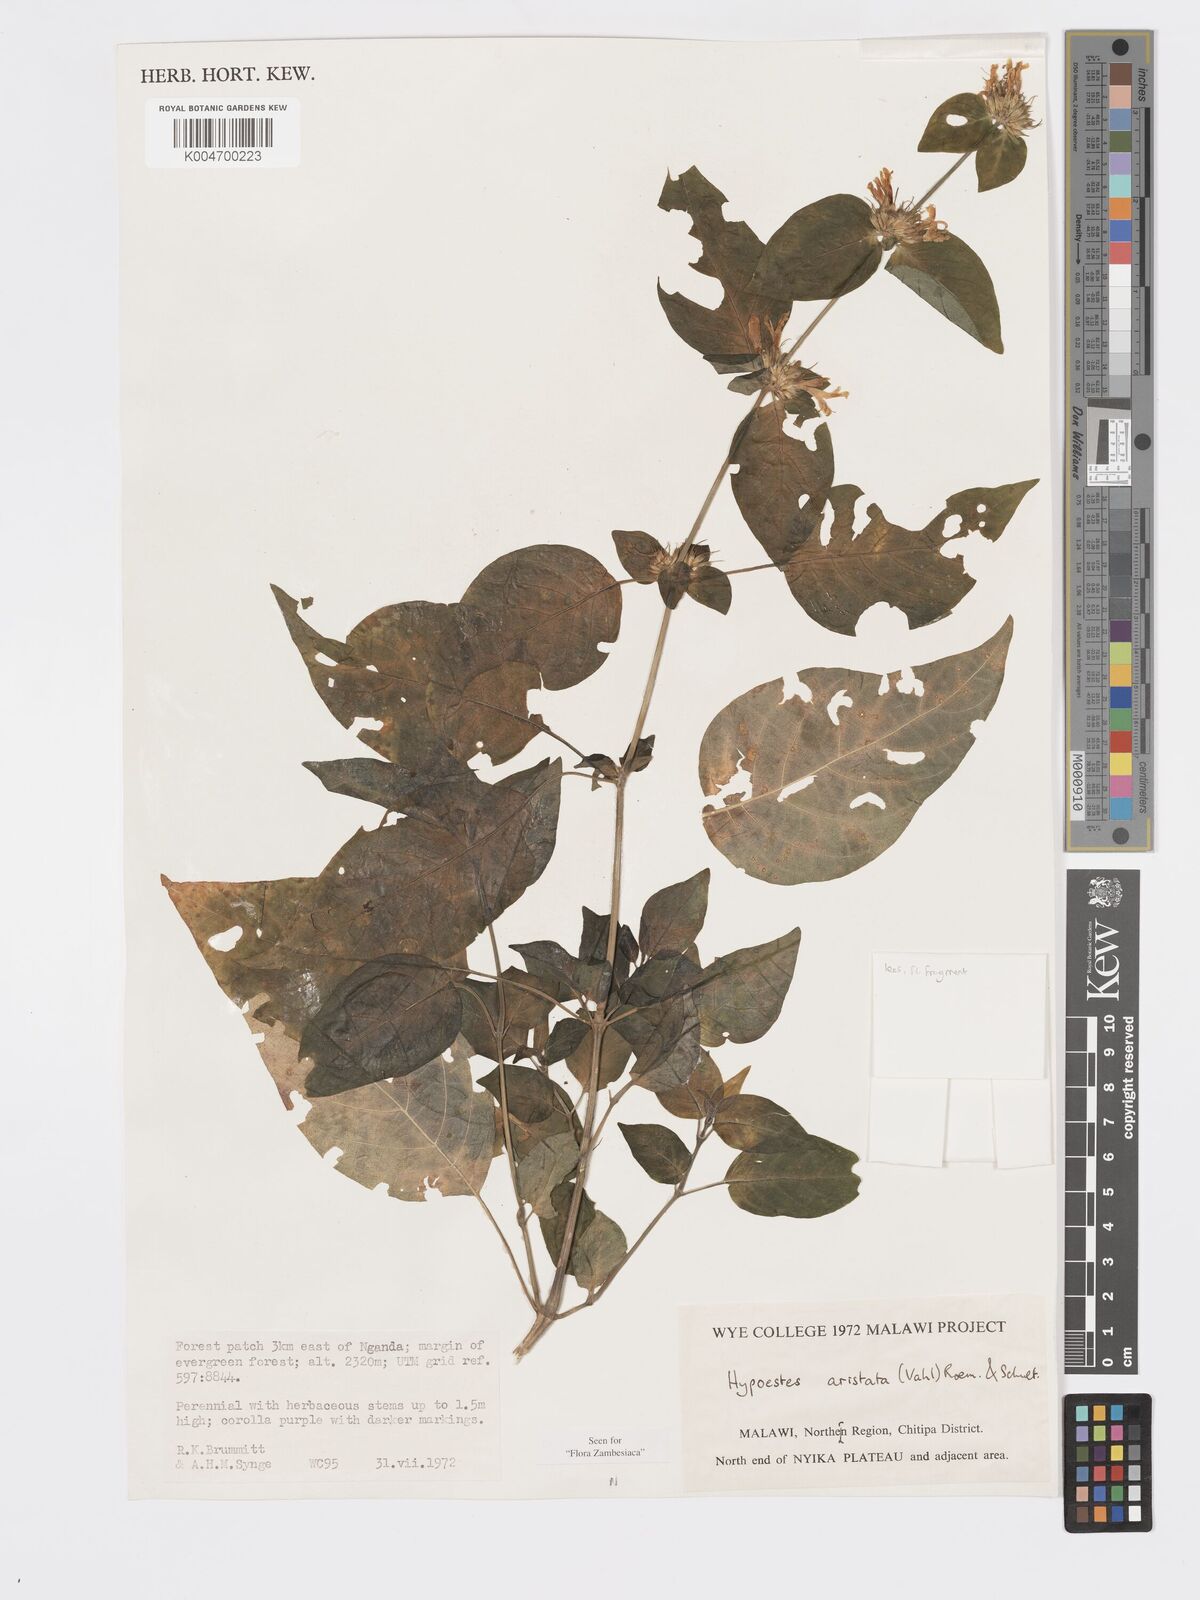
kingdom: Plantae
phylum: Tracheophyta
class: Magnoliopsida
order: Lamiales
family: Acanthaceae
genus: Hypoestes
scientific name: Hypoestes aristata
